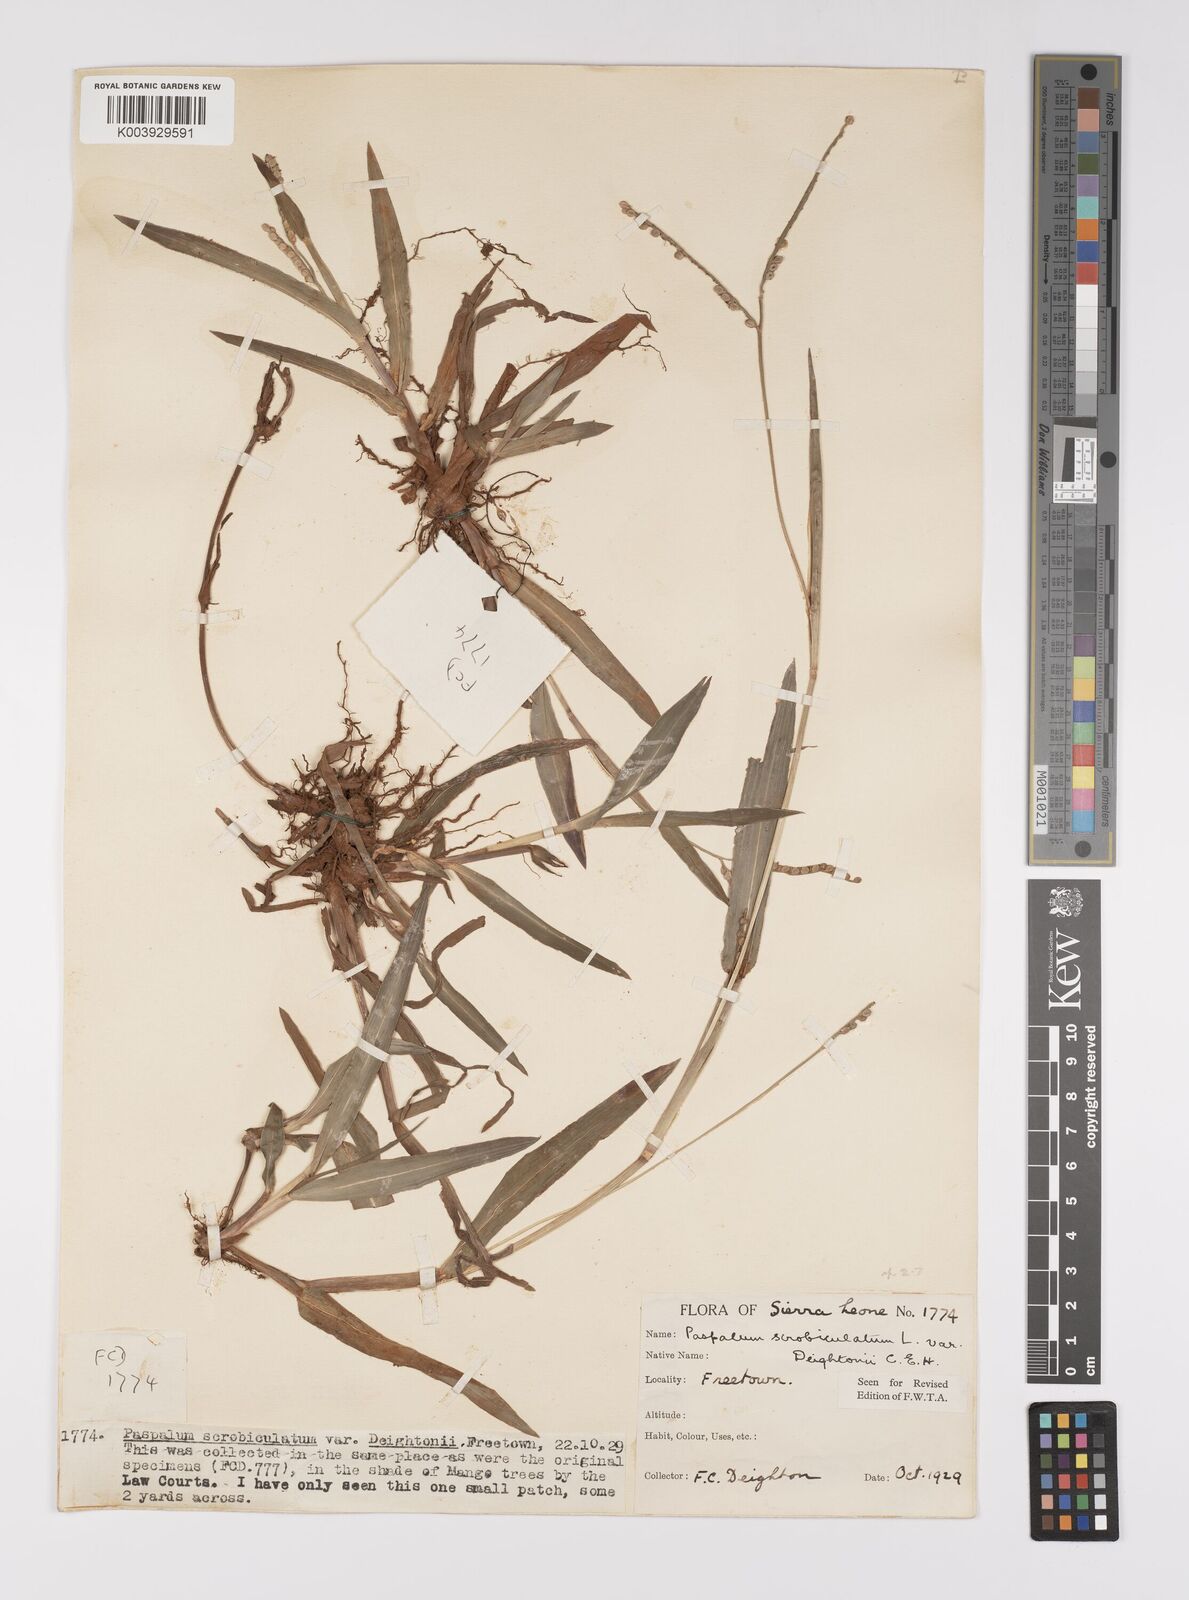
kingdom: Plantae
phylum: Tracheophyta
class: Liliopsida
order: Poales
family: Poaceae
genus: Paspalum
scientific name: Paspalum scrobiculatum
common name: Kodo millet
